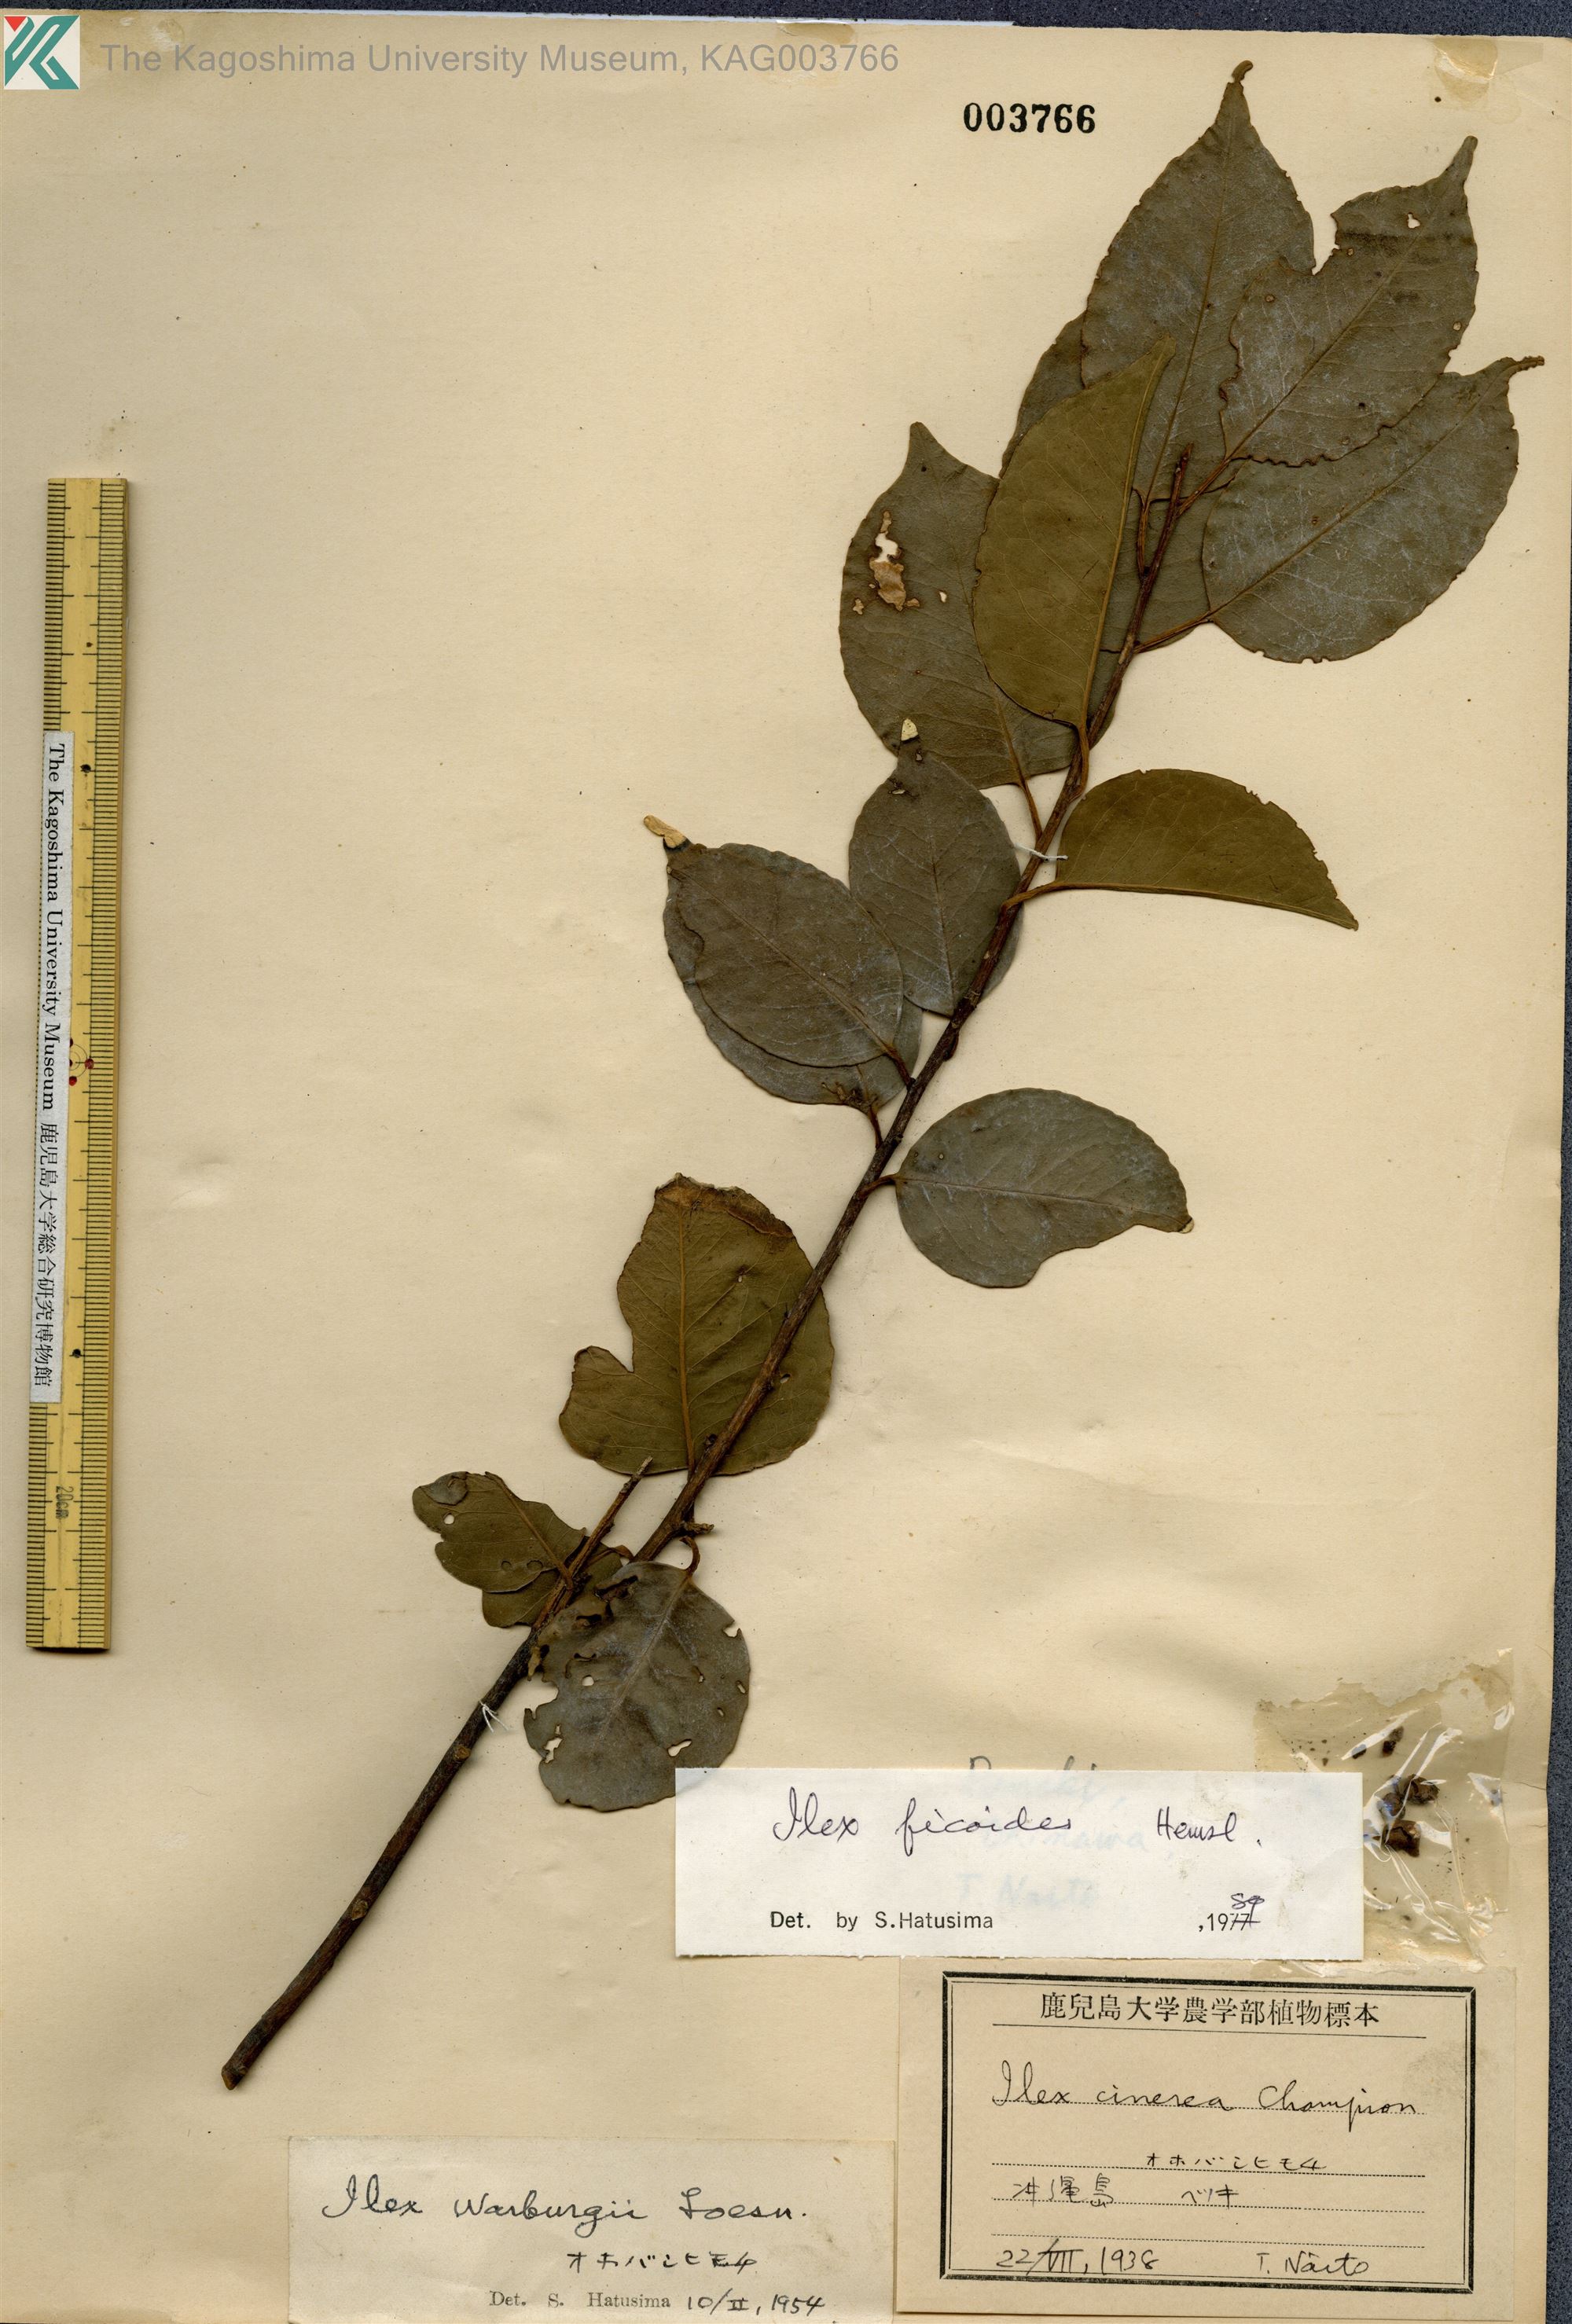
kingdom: Plantae
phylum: Tracheophyta
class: Magnoliopsida
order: Aquifoliales
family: Aquifoliaceae
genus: Ilex
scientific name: Ilex warburgii
